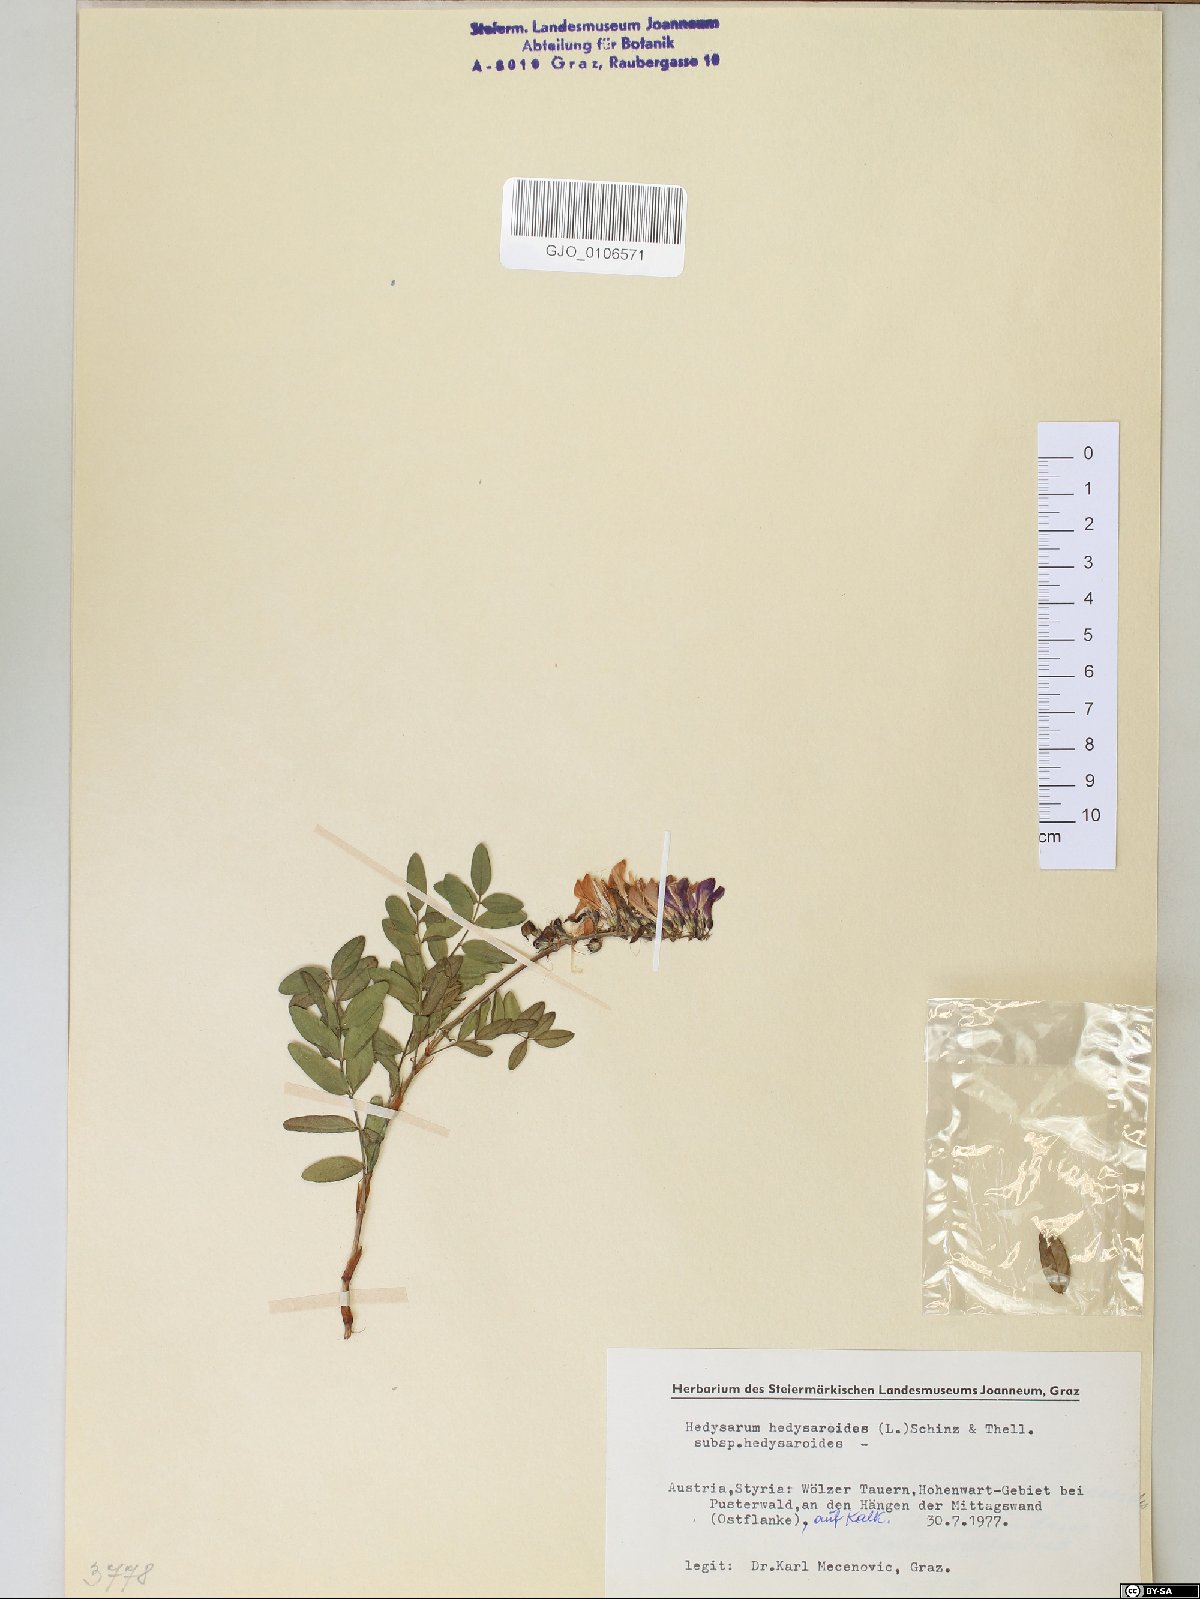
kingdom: Plantae
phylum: Tracheophyta
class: Magnoliopsida
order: Fabales
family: Fabaceae
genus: Hedysarum
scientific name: Hedysarum hedysaroides
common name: Alpine french-honeysuckle
